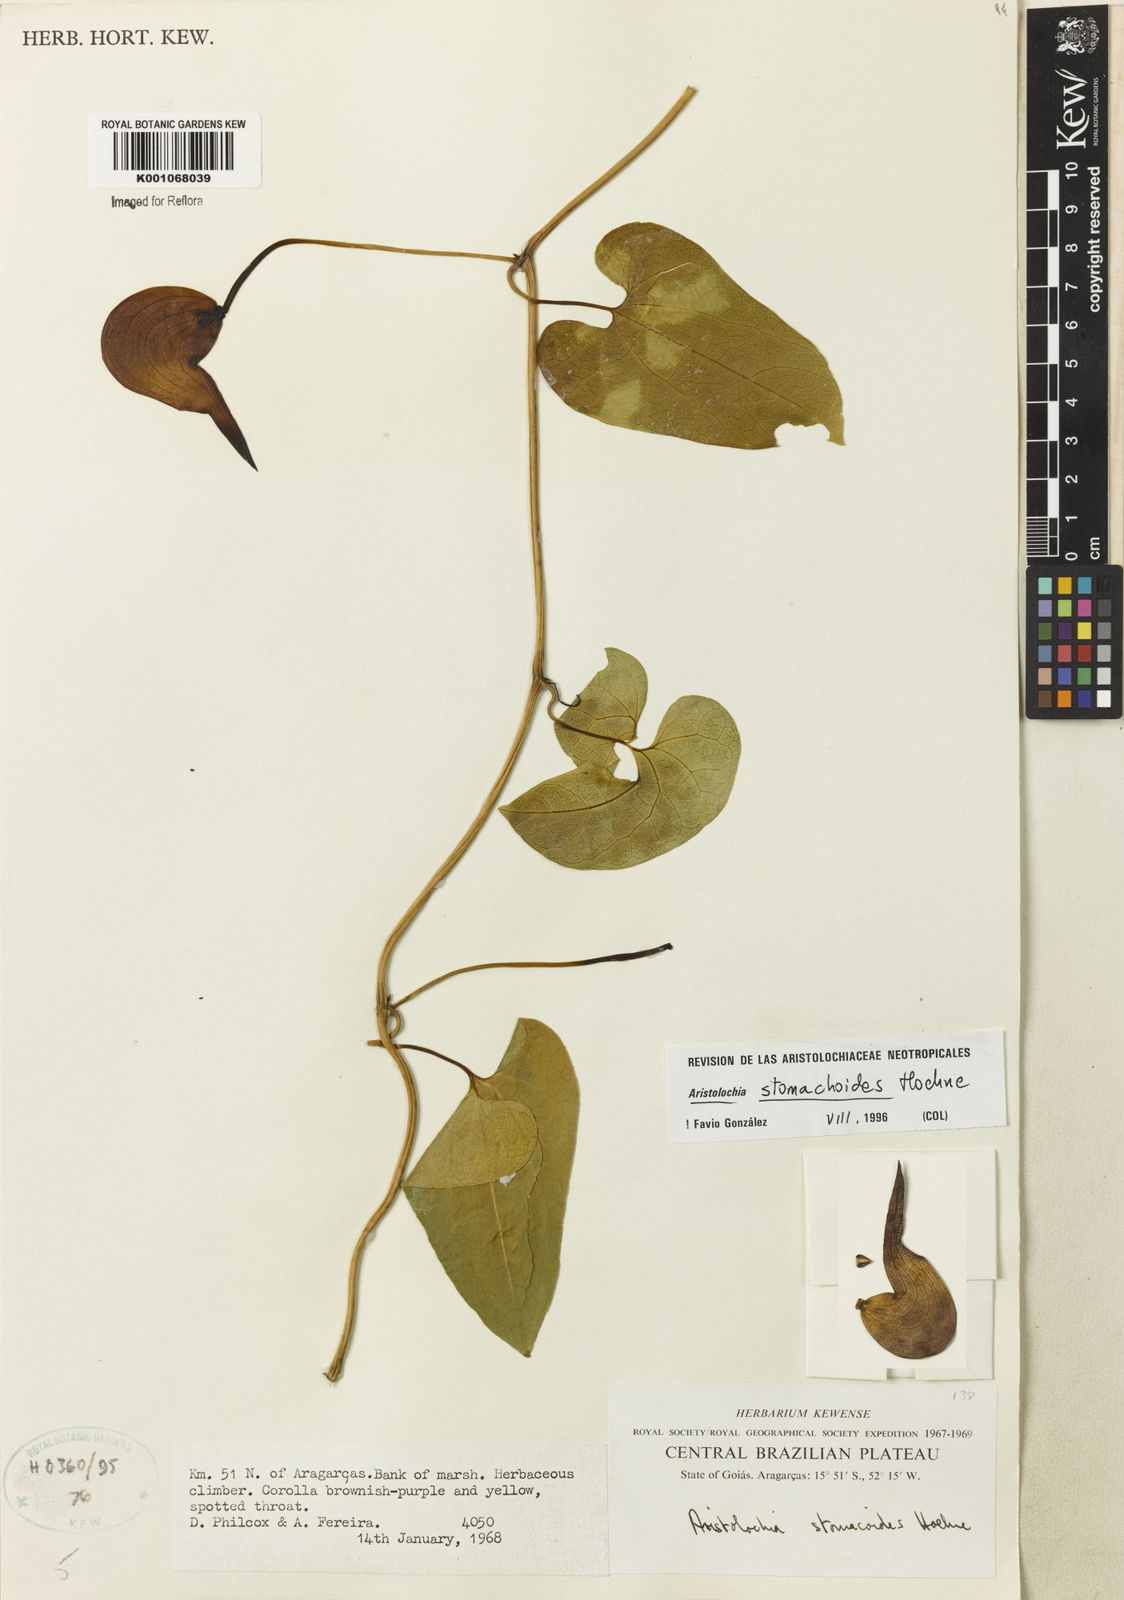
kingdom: Plantae
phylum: Tracheophyta
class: Magnoliopsida
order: Piperales
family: Aristolochiaceae
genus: Aristolochia
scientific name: Aristolochia
